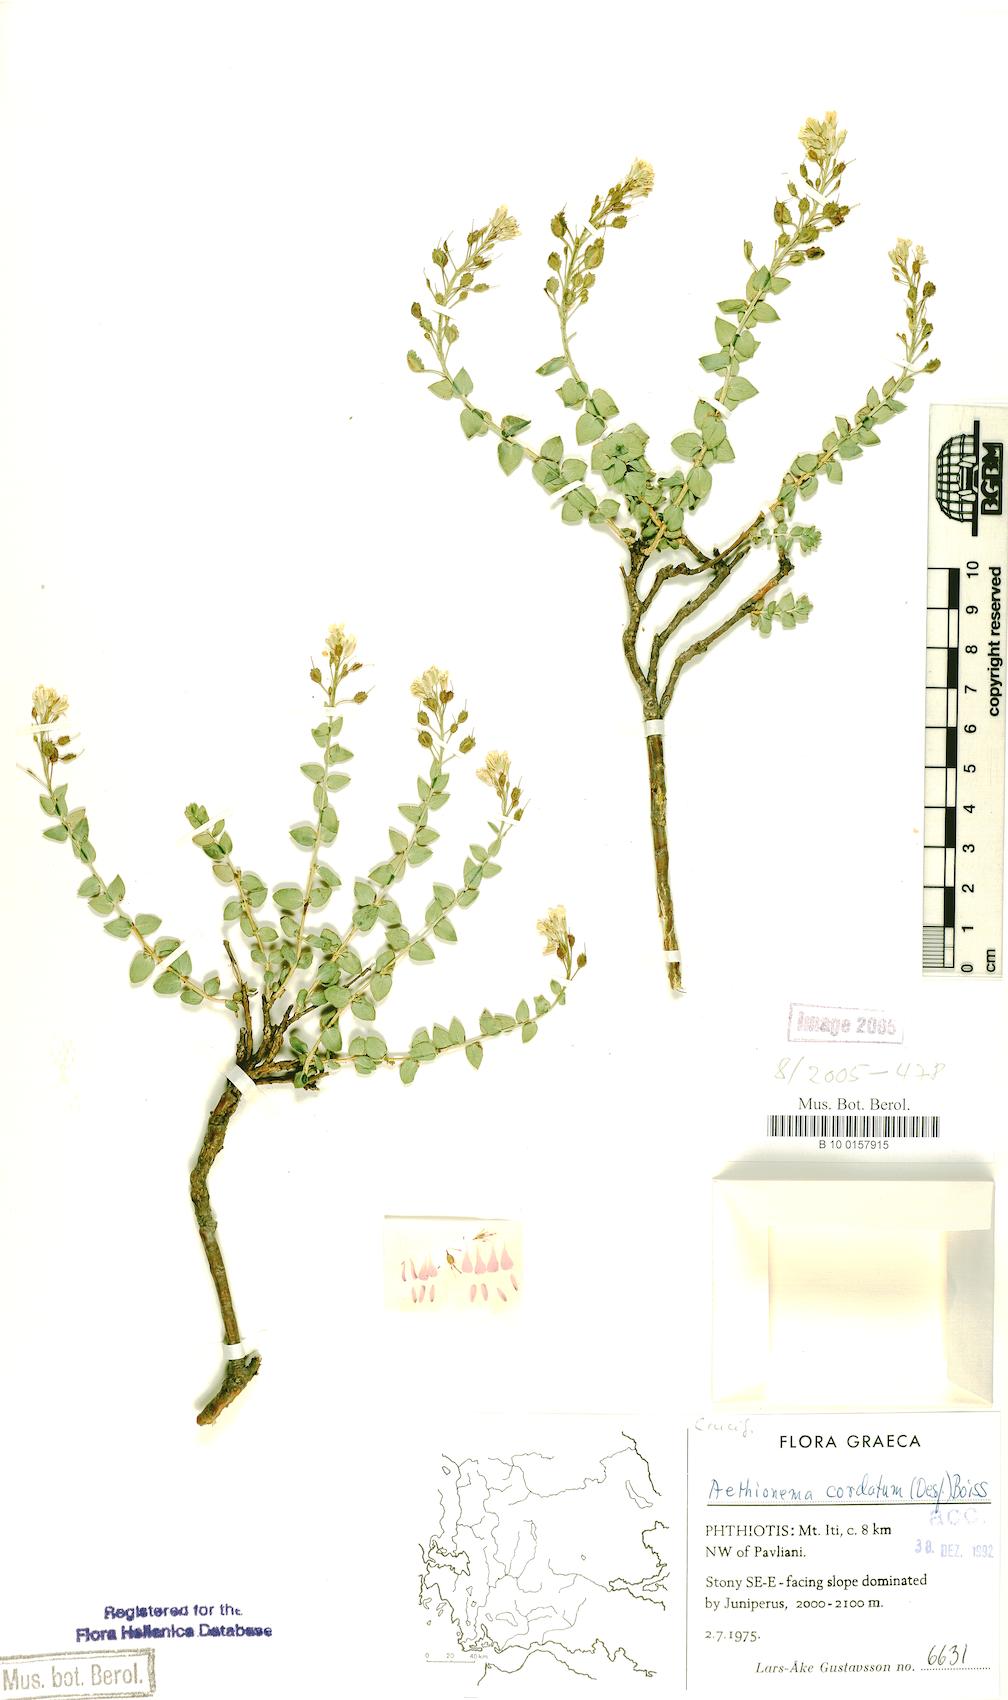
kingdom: Plantae
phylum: Tracheophyta
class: Magnoliopsida
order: Brassicales
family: Brassicaceae
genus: Aethionema
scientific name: Aethionema cordatum
